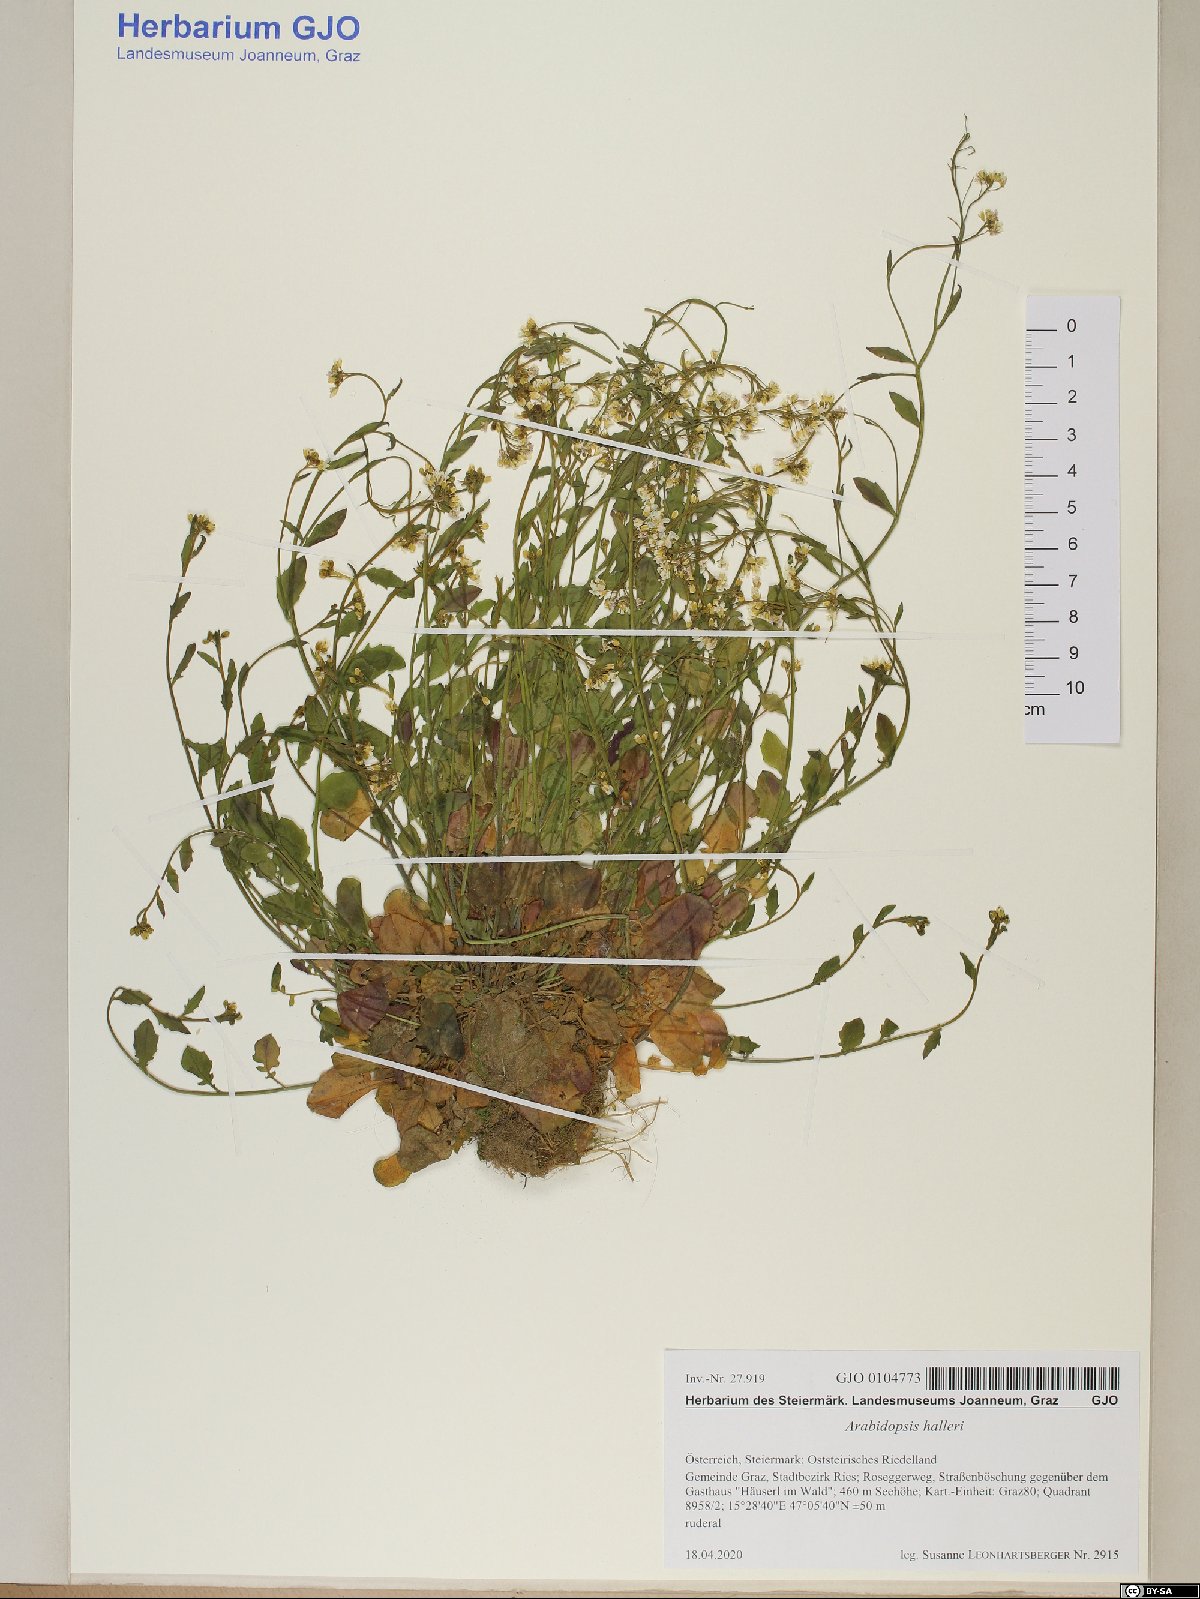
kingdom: Plantae
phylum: Tracheophyta
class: Magnoliopsida
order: Brassicales
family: Brassicaceae
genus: Arabidopsis
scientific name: Arabidopsis halleri
